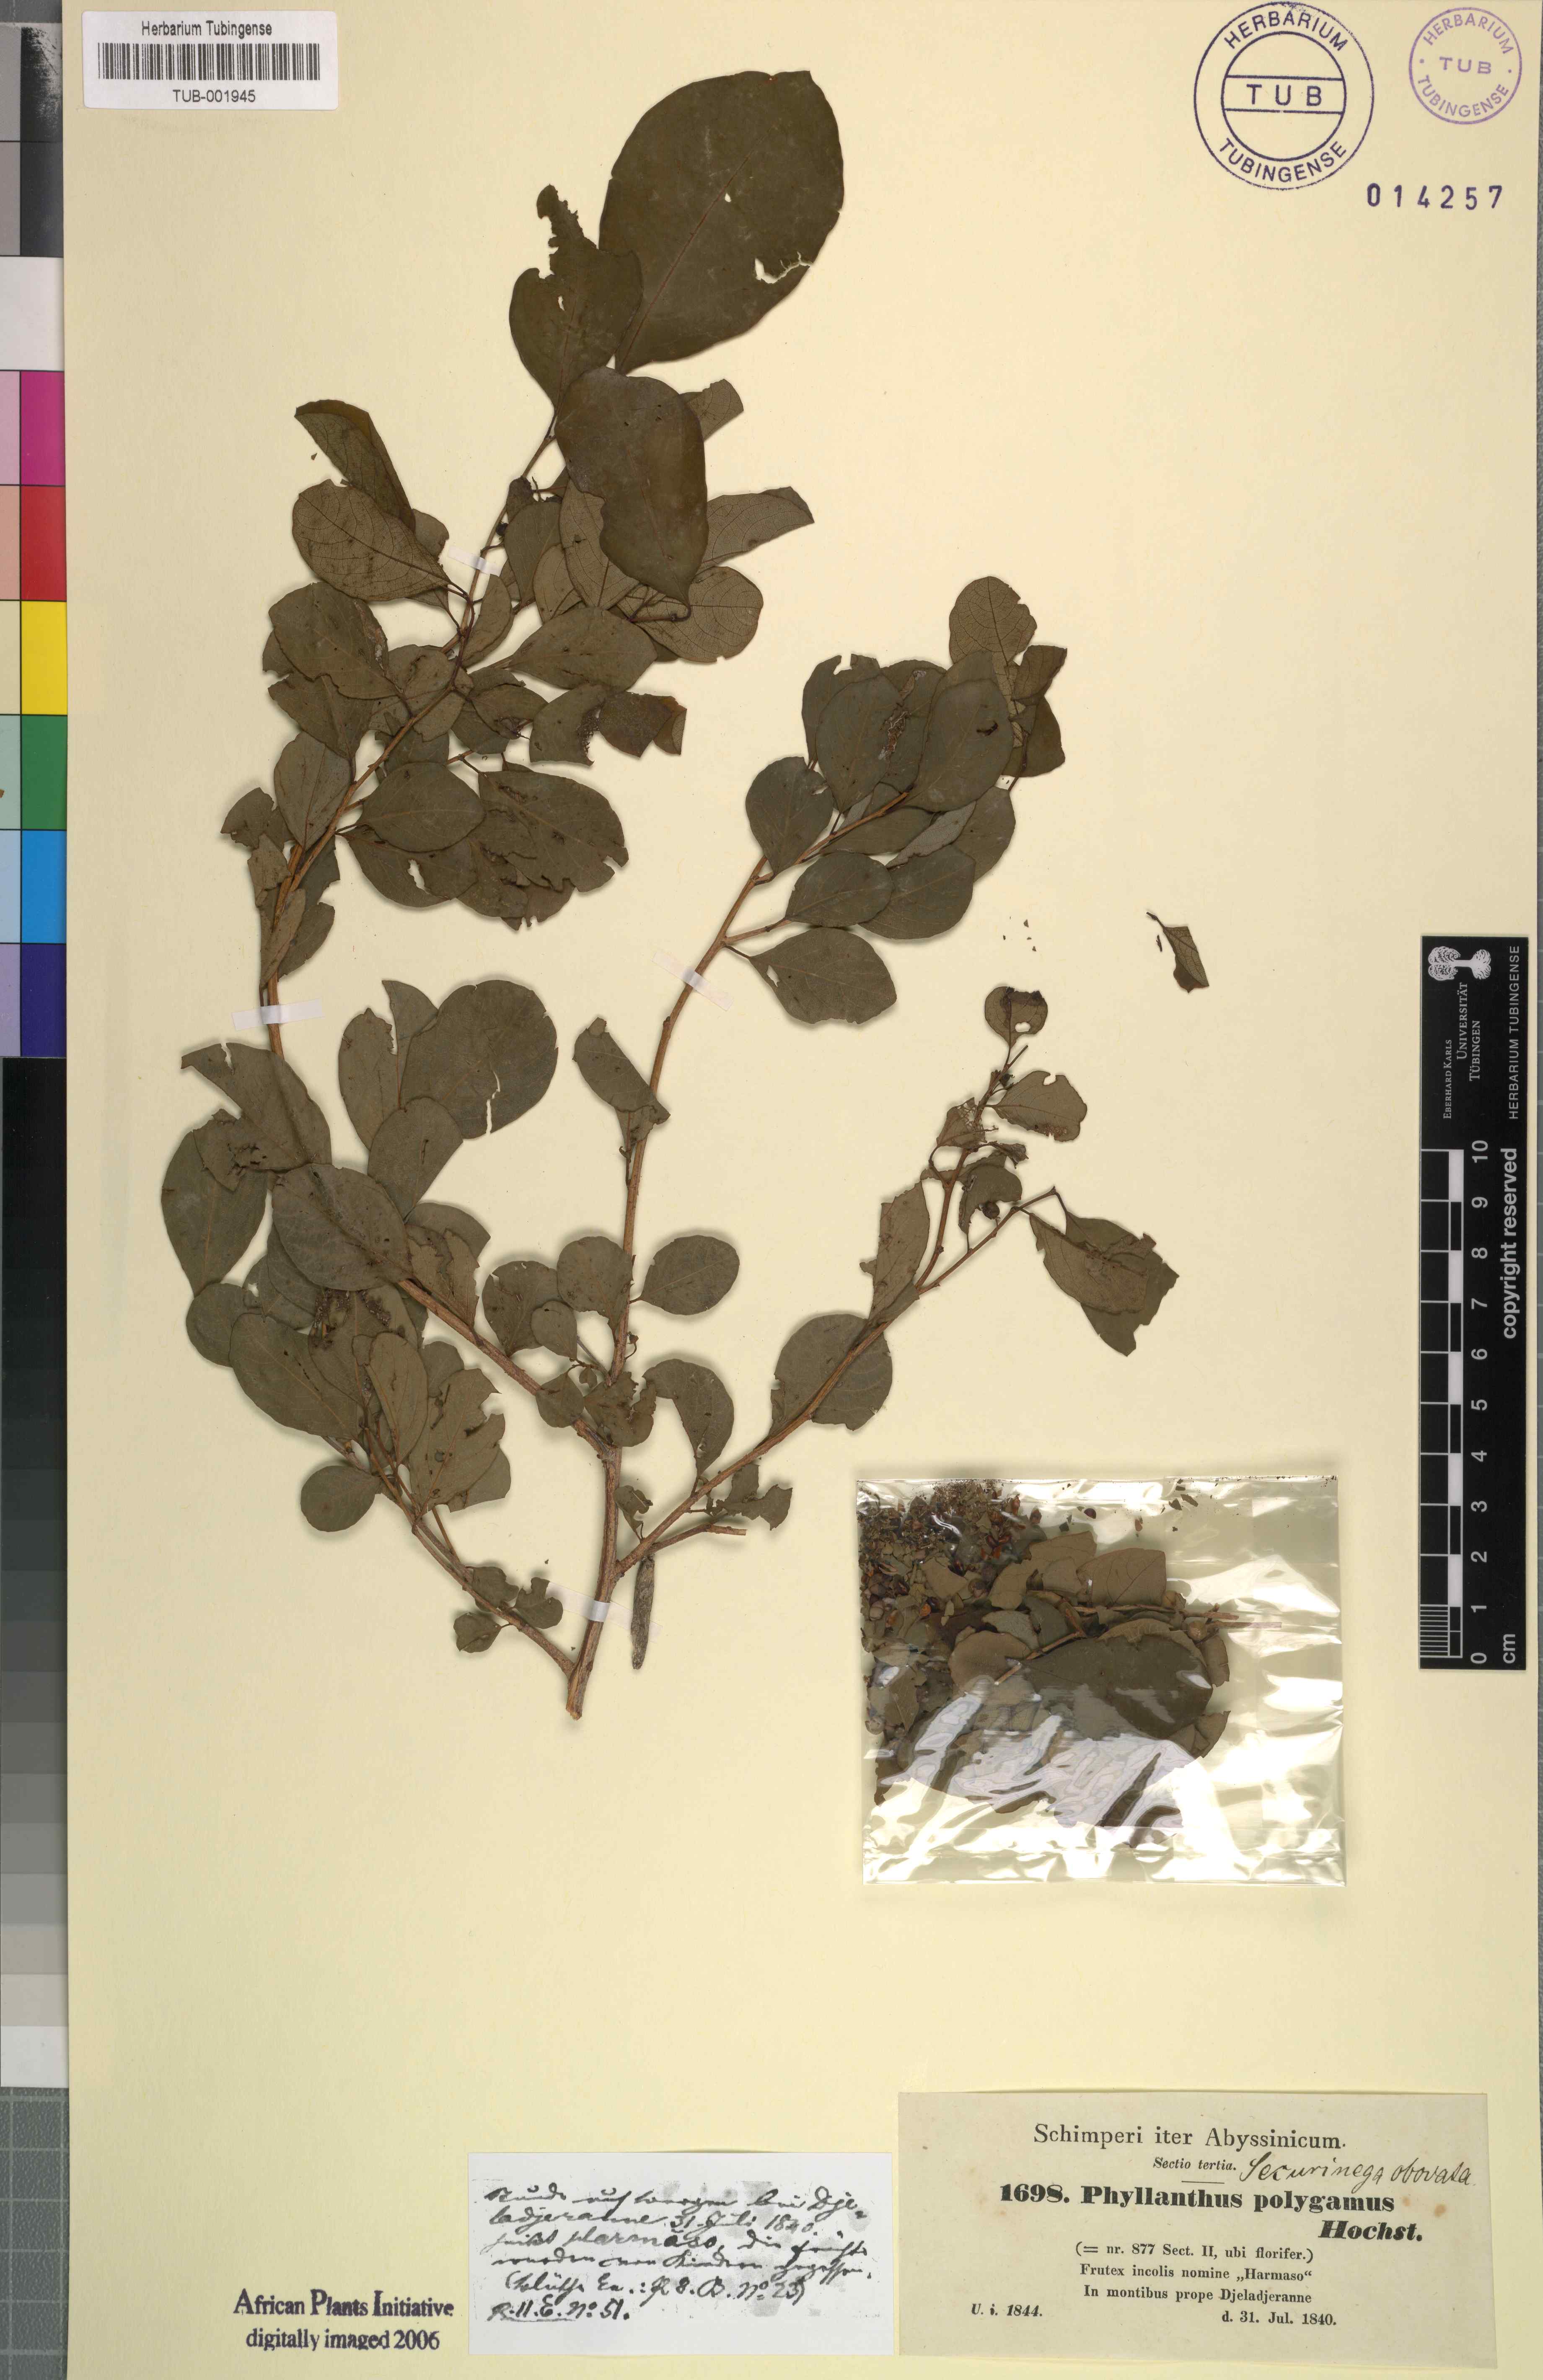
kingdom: Plantae
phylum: Tracheophyta
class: Magnoliopsida
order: Malpighiales
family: Phyllanthaceae
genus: Flueggea
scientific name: Flueggea virosa
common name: Common bushweed
